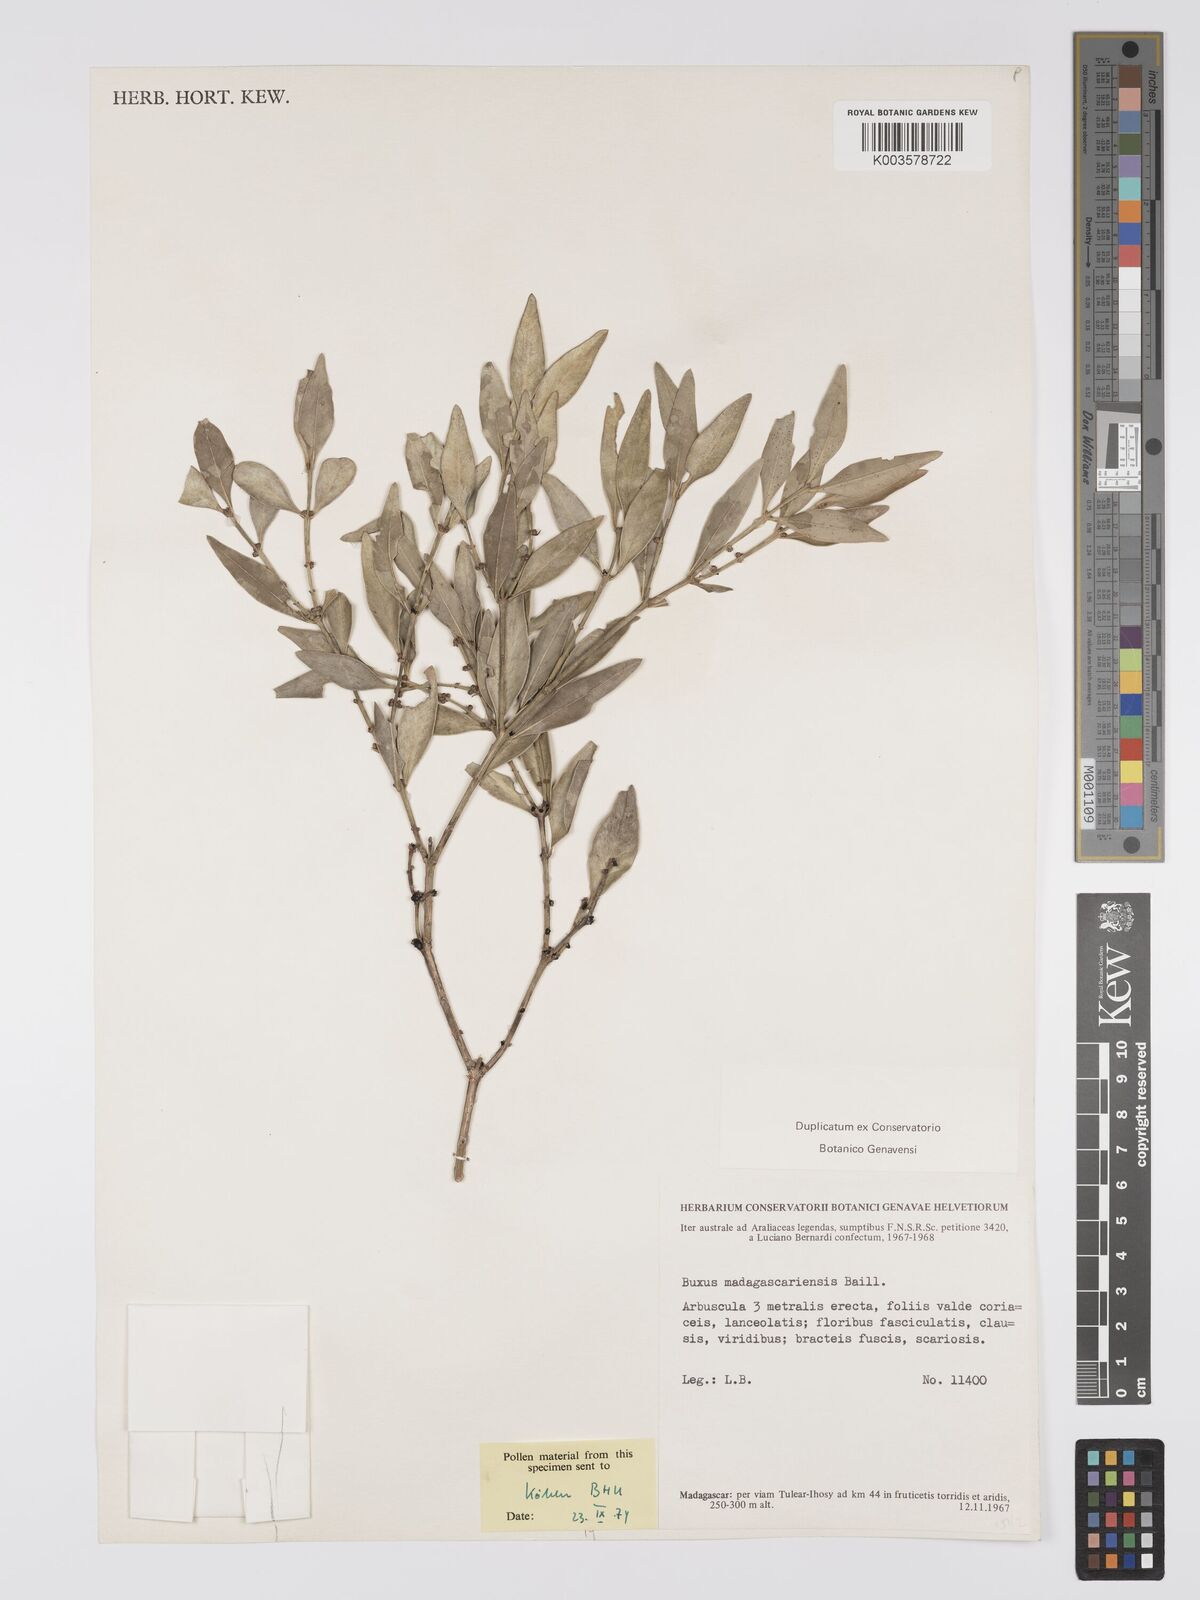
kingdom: Plantae
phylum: Tracheophyta
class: Magnoliopsida
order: Buxales
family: Buxaceae
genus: Buxus
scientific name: Buxus madagascarica
